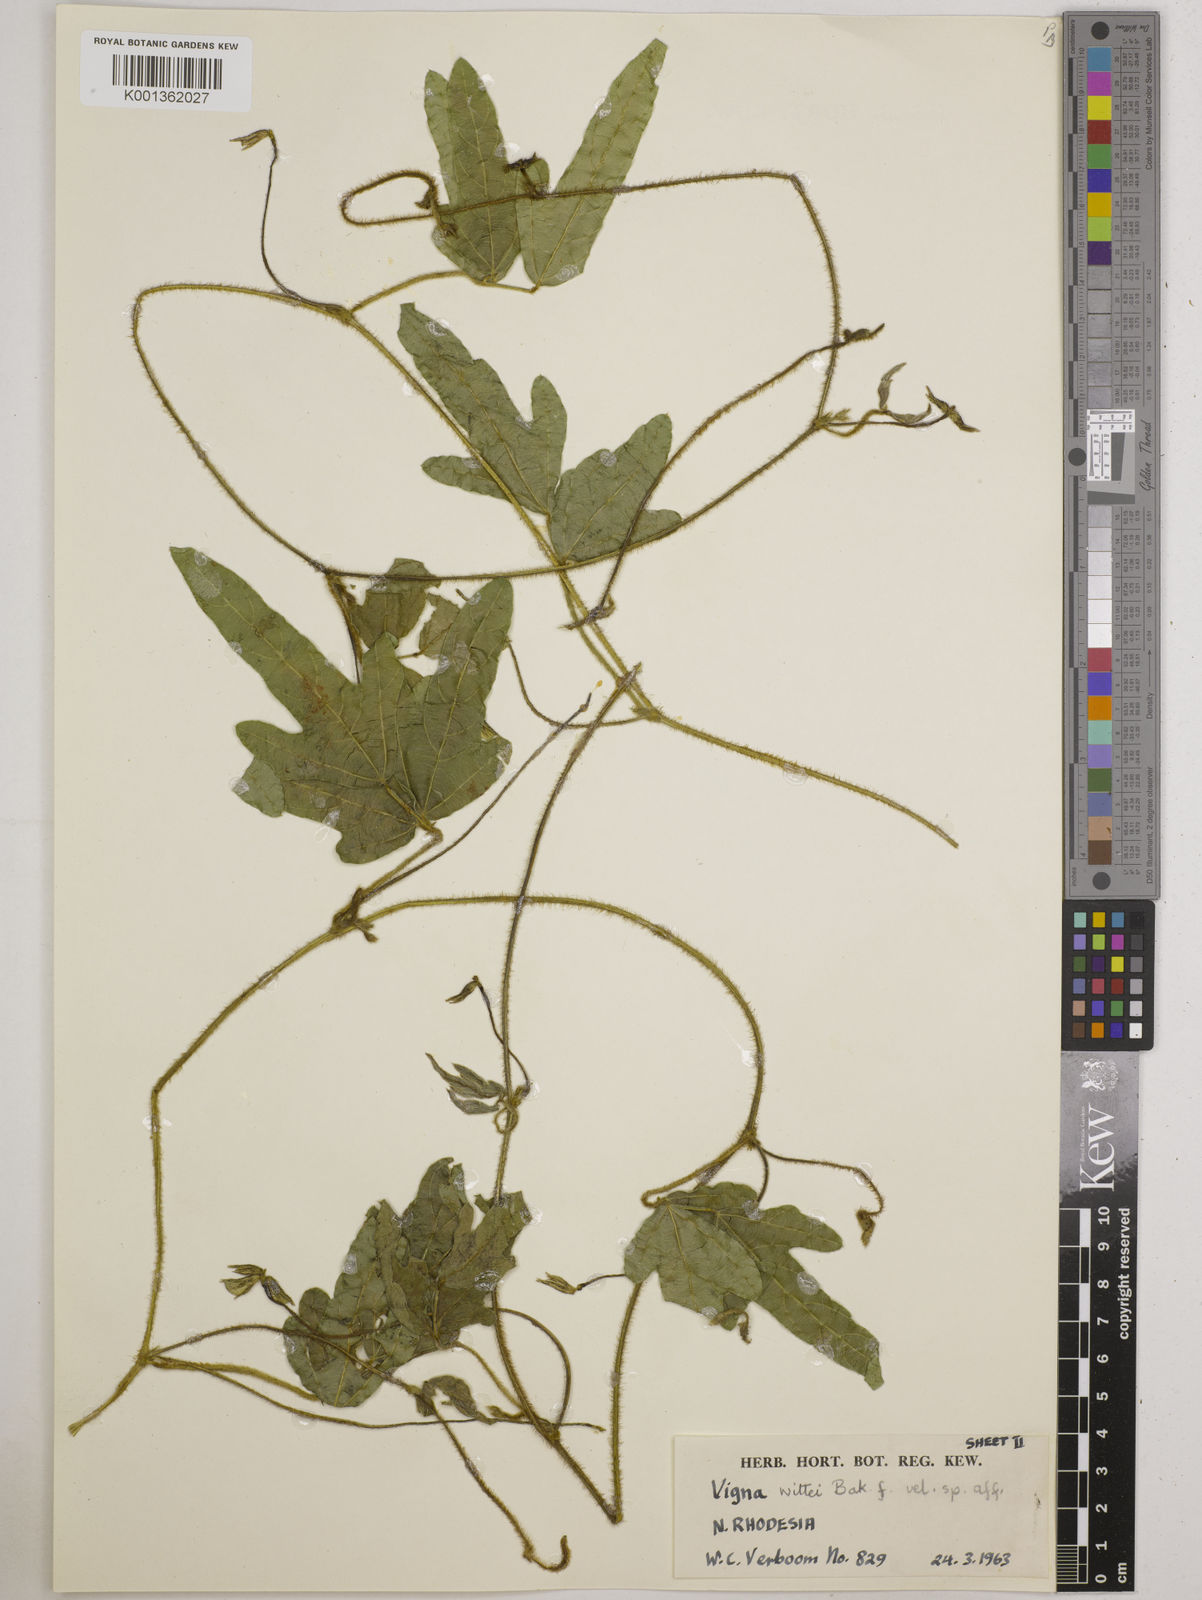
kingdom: Plantae
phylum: Tracheophyta
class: Magnoliopsida
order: Fabales
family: Fabaceae
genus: Vigna
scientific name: Vigna radicans
